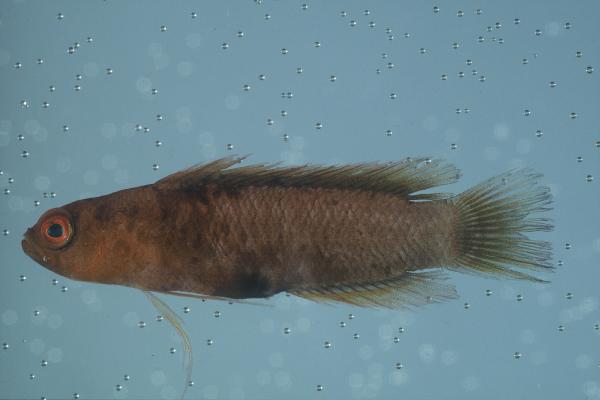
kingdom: Animalia
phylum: Chordata
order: Perciformes
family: Pseudochromidae
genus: Chlidichthys
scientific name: Chlidichthys
